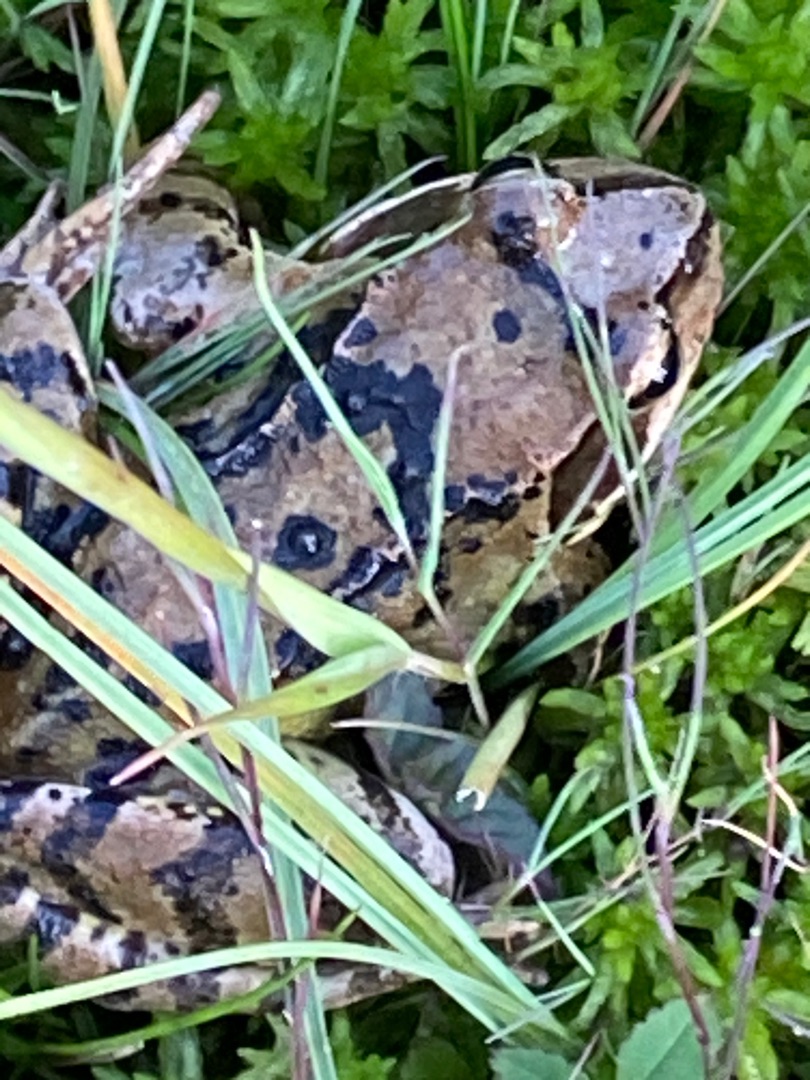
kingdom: Animalia
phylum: Chordata
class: Amphibia
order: Anura
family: Ranidae
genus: Rana
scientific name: Rana temporaria
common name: Butsnudet frø
